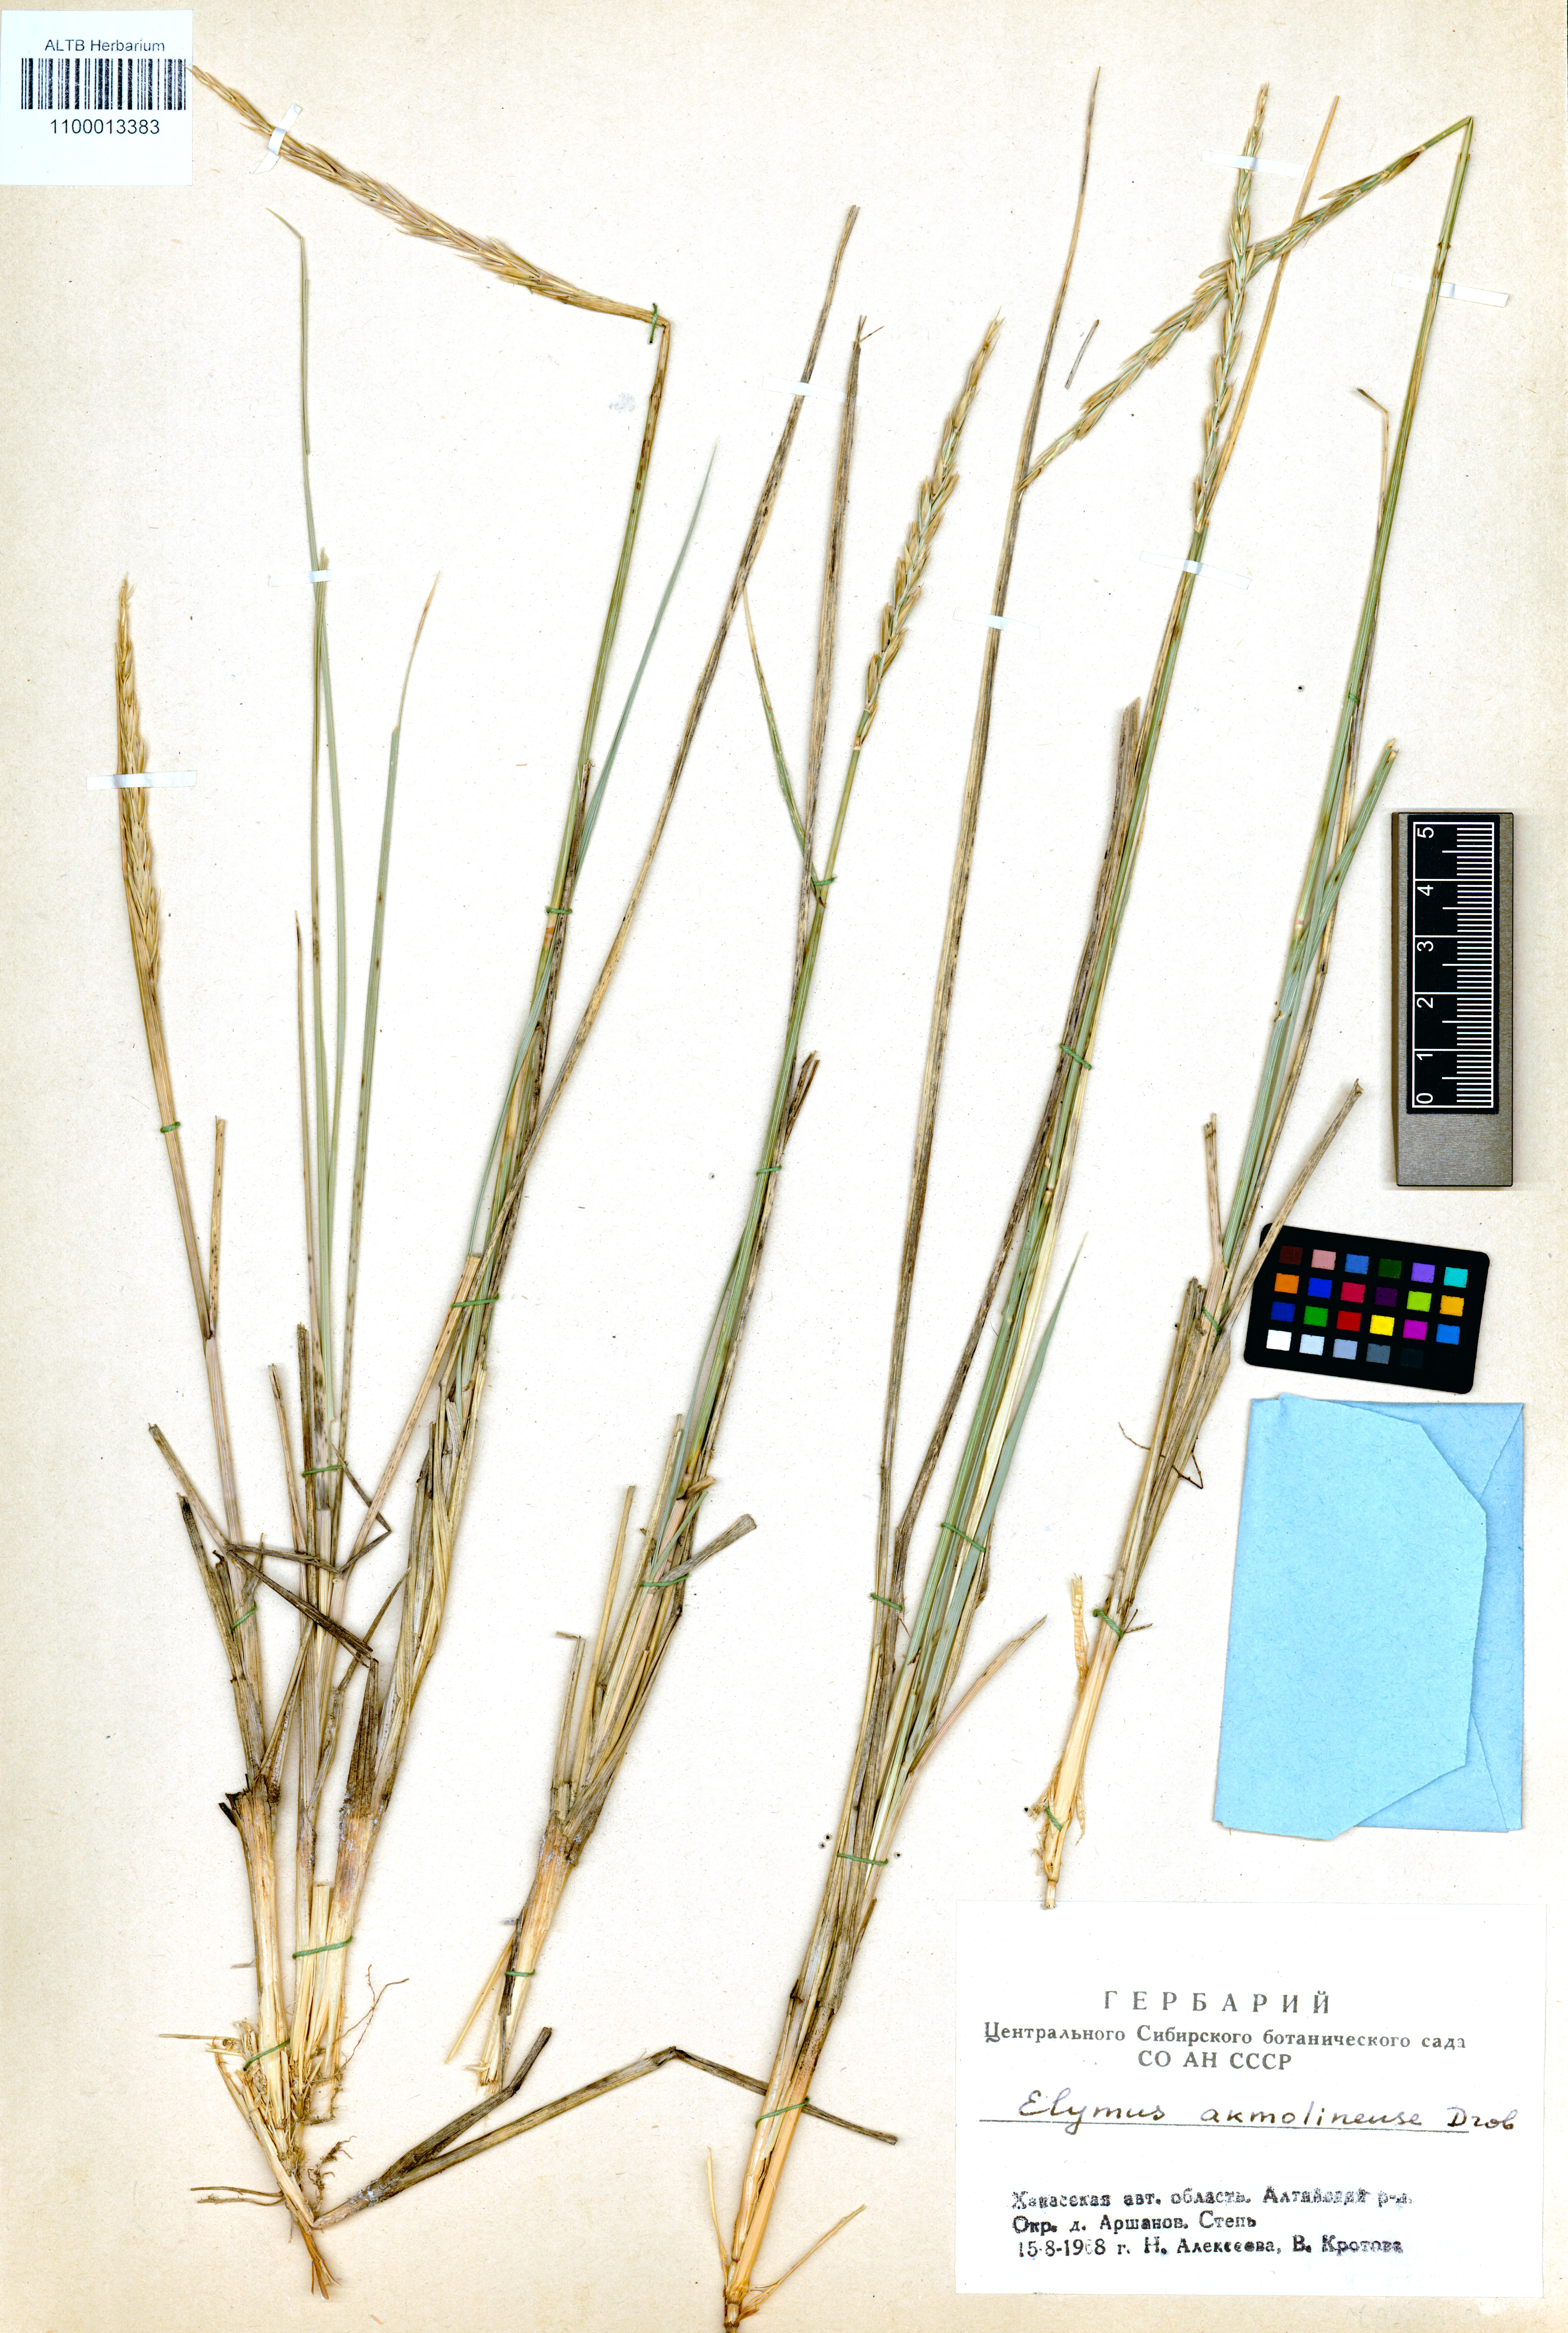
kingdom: Plantae
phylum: Tracheophyta
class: Liliopsida
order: Poales
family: Poaceae
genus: Leymus
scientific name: Leymus akmolinensis
